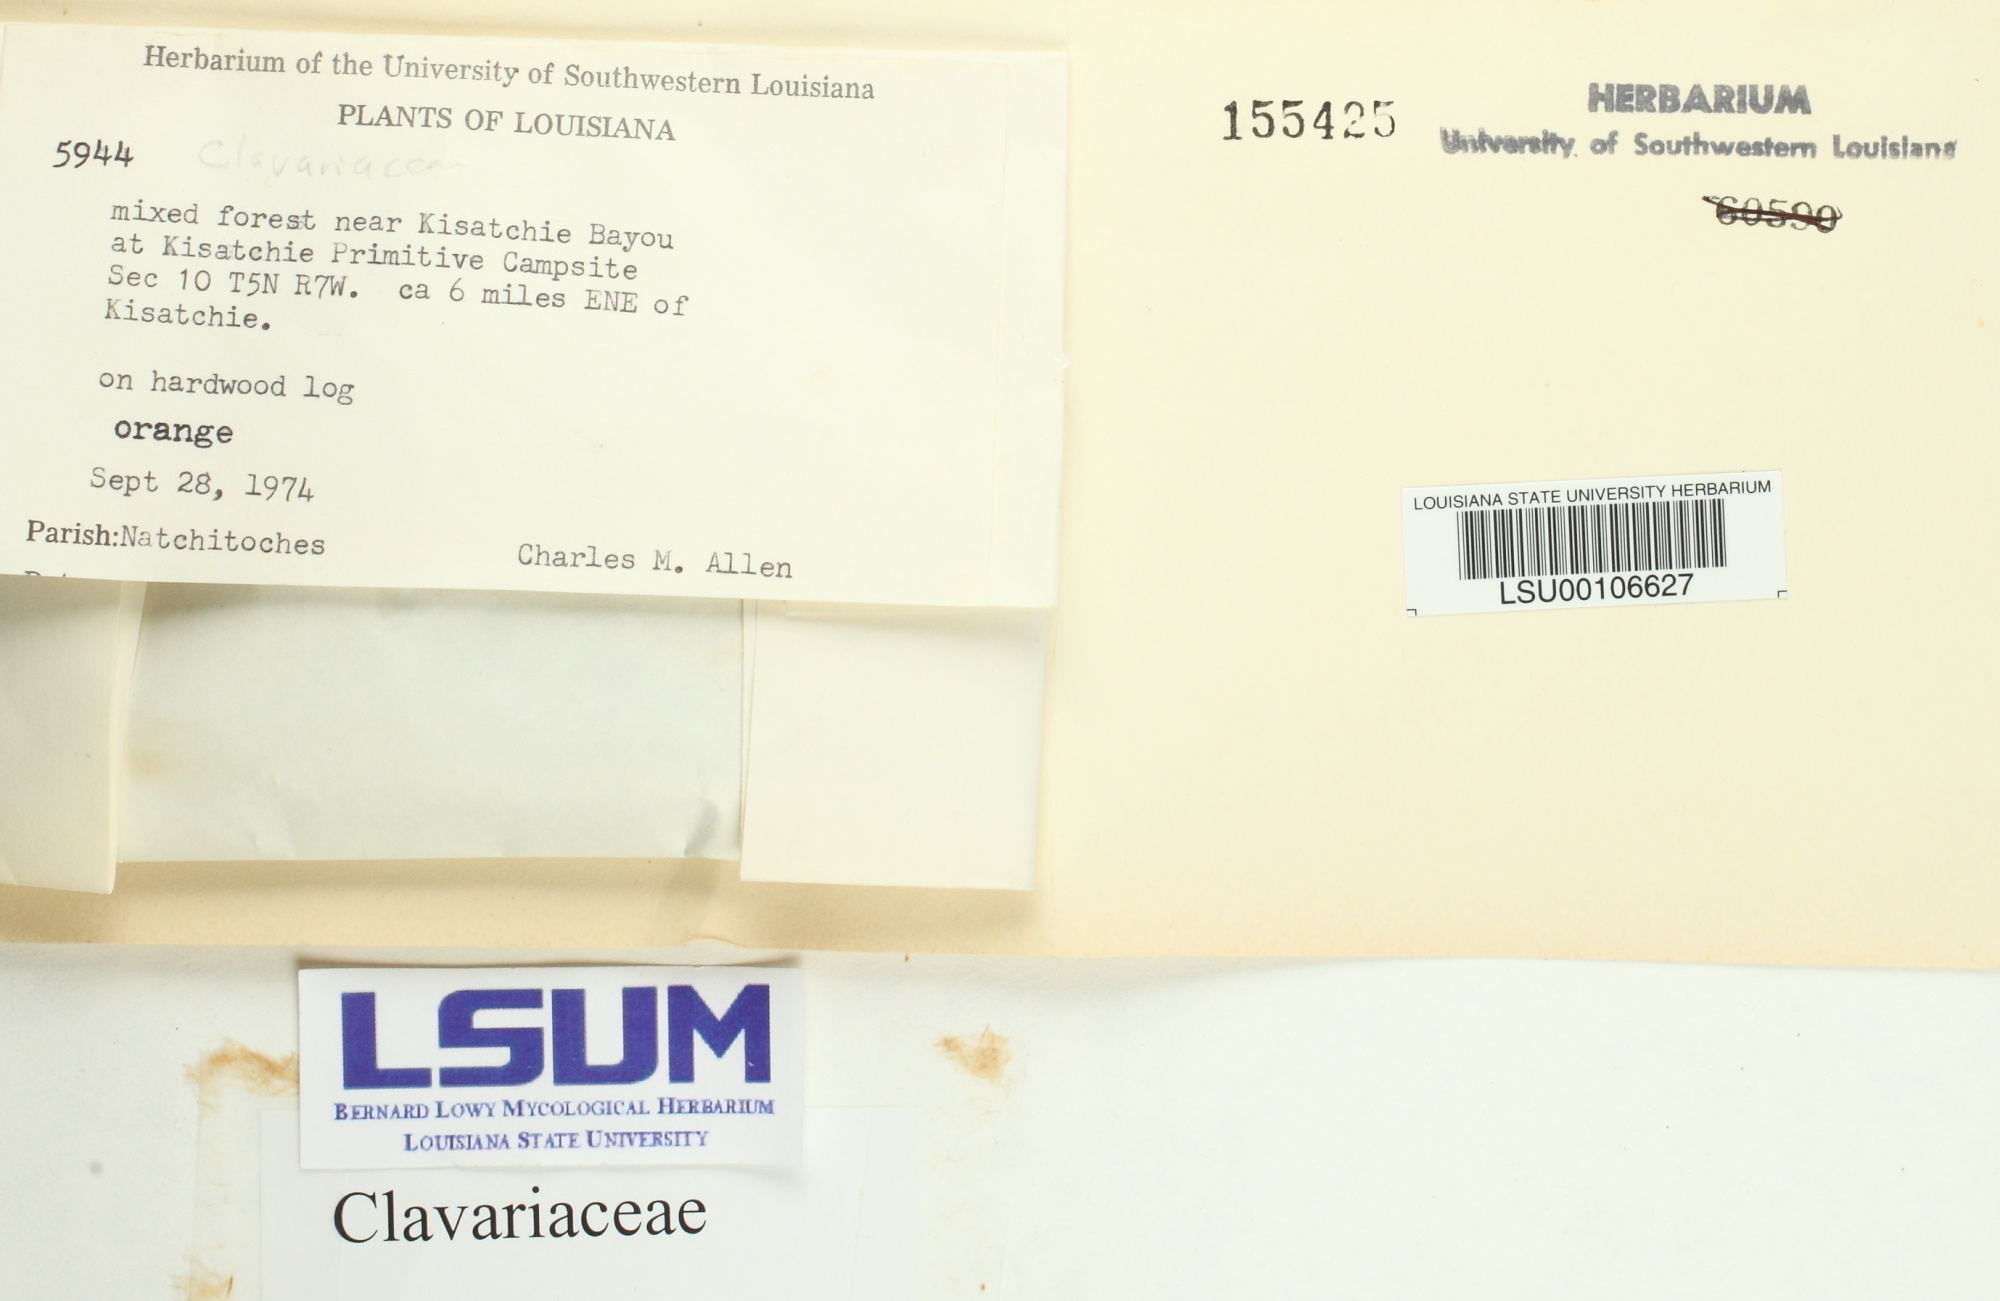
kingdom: Fungi
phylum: Basidiomycota
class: Agaricomycetes
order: Agaricales
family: Clavariaceae
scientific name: Clavariaceae
